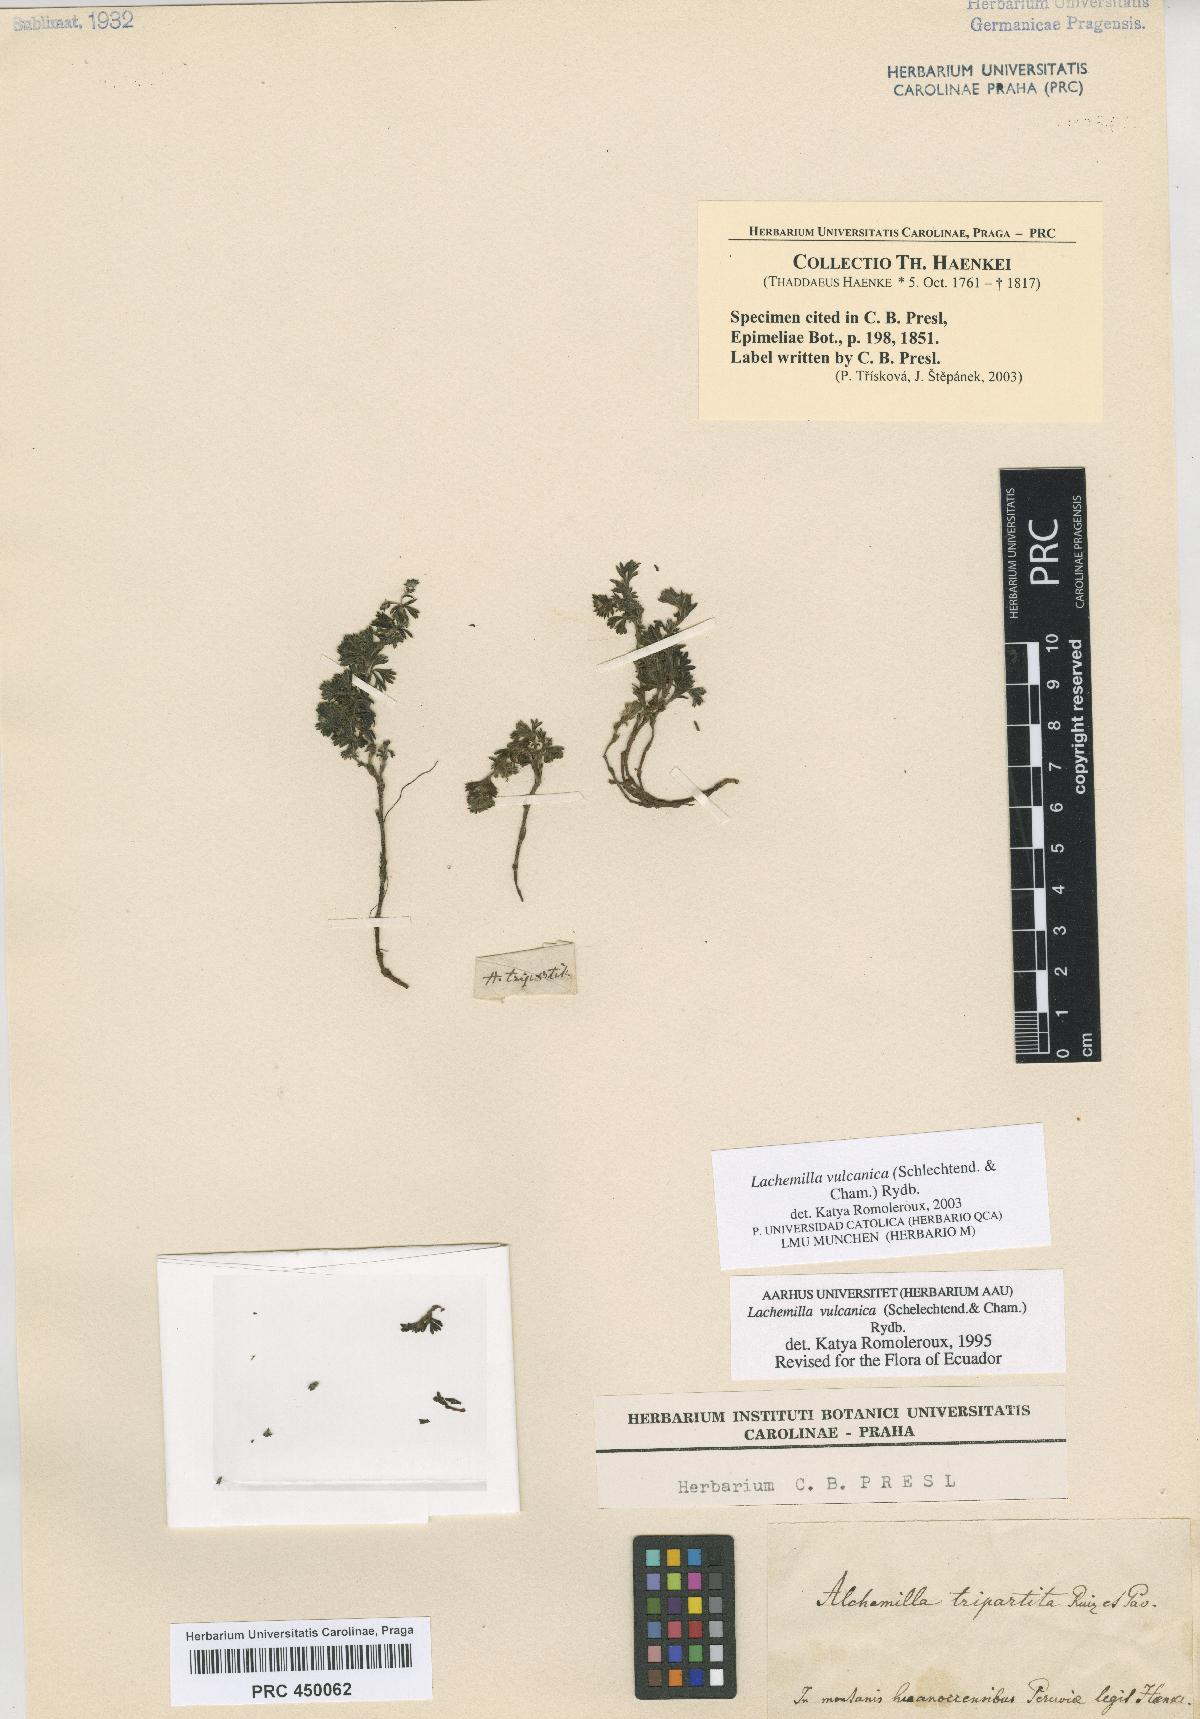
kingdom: Plantae
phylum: Tracheophyta
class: Magnoliopsida
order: Rosales
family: Rosaceae
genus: Lachemilla
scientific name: Lachemilla vulcanica
